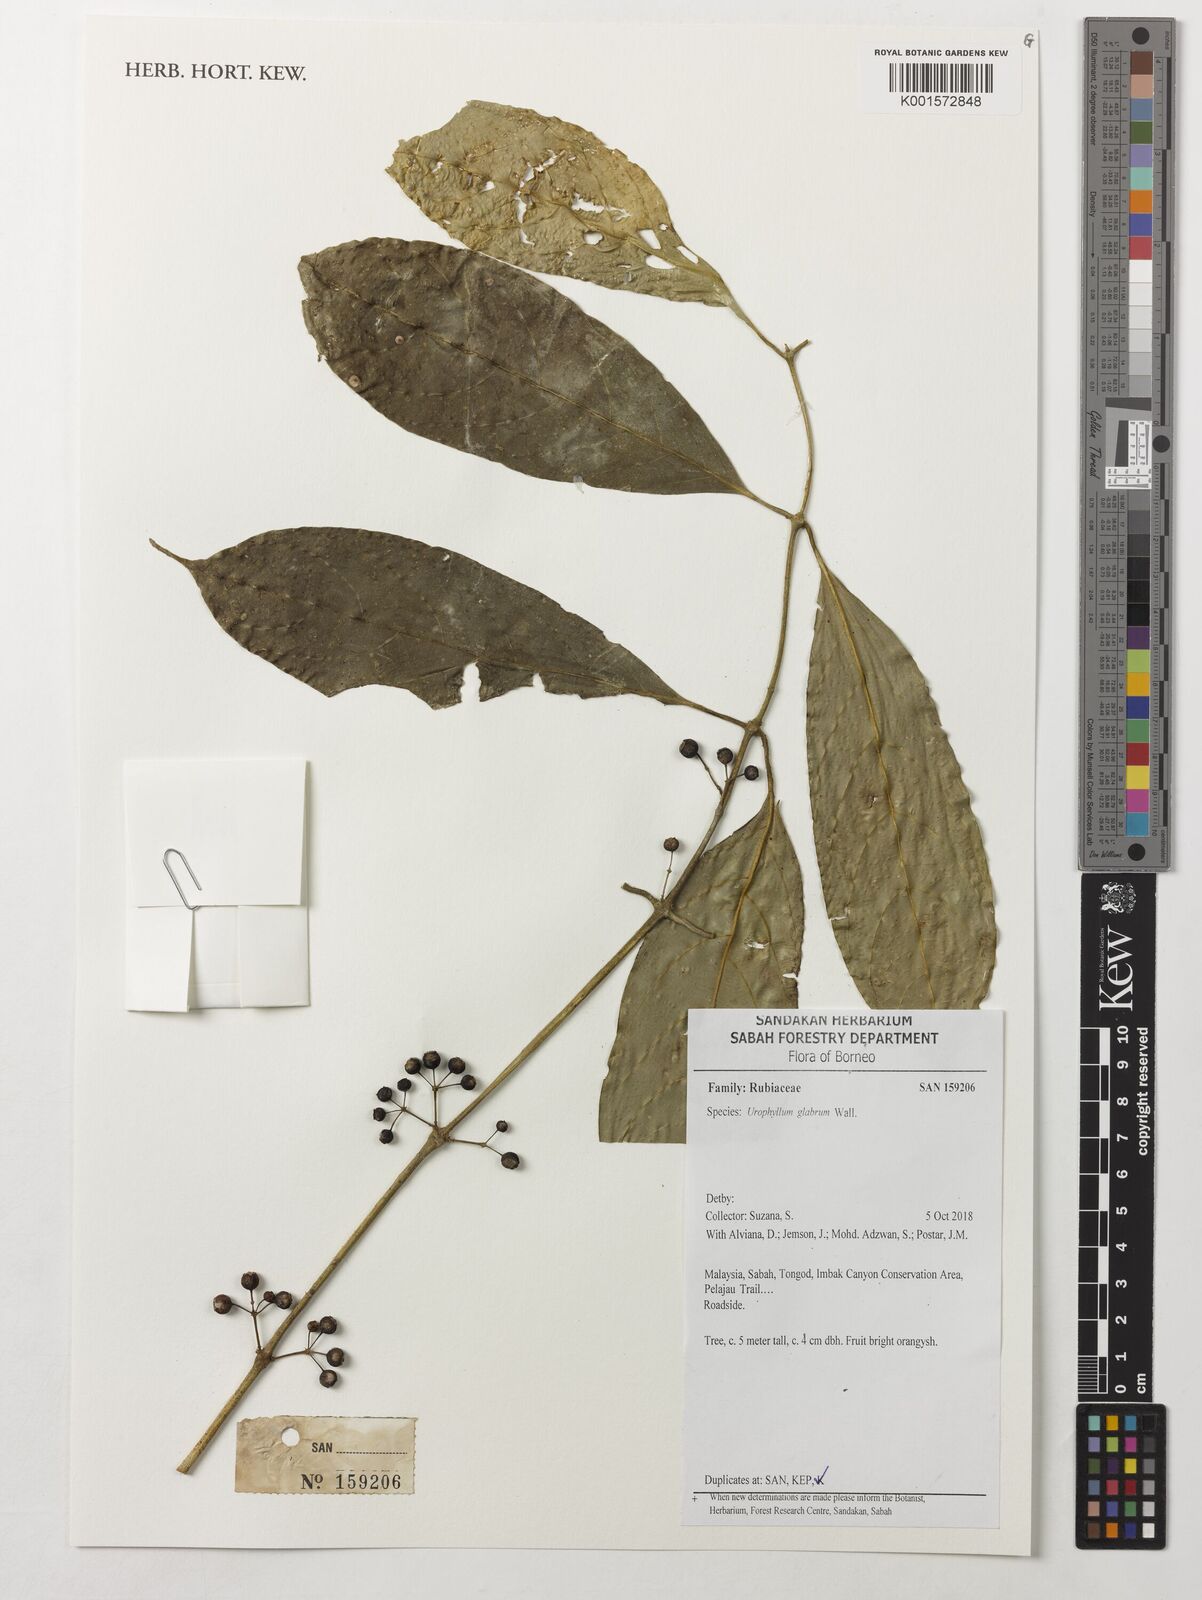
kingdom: Plantae
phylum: Tracheophyta
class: Magnoliopsida
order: Gentianales
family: Rubiaceae
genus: Urophyllum
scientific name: Urophyllum glabrum
